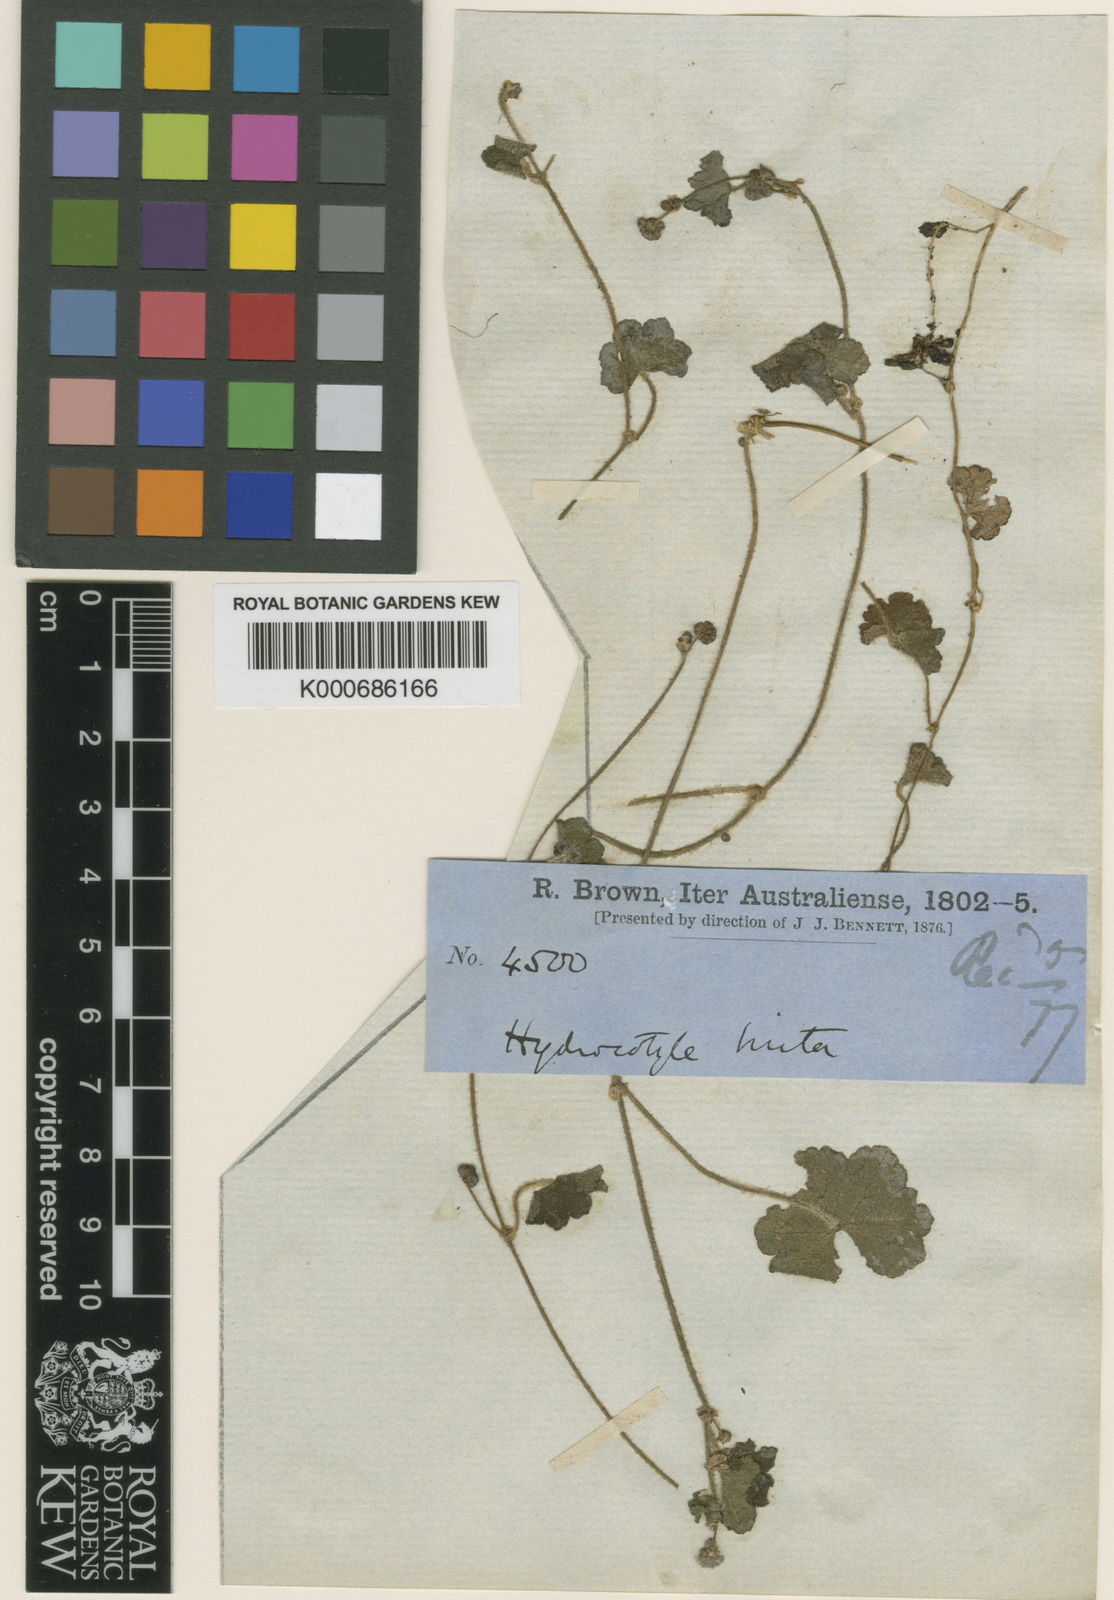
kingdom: Plantae
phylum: Tracheophyta
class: Magnoliopsida
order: Apiales
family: Araliaceae
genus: Hydrocotyle
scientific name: Hydrocotyle hirta
